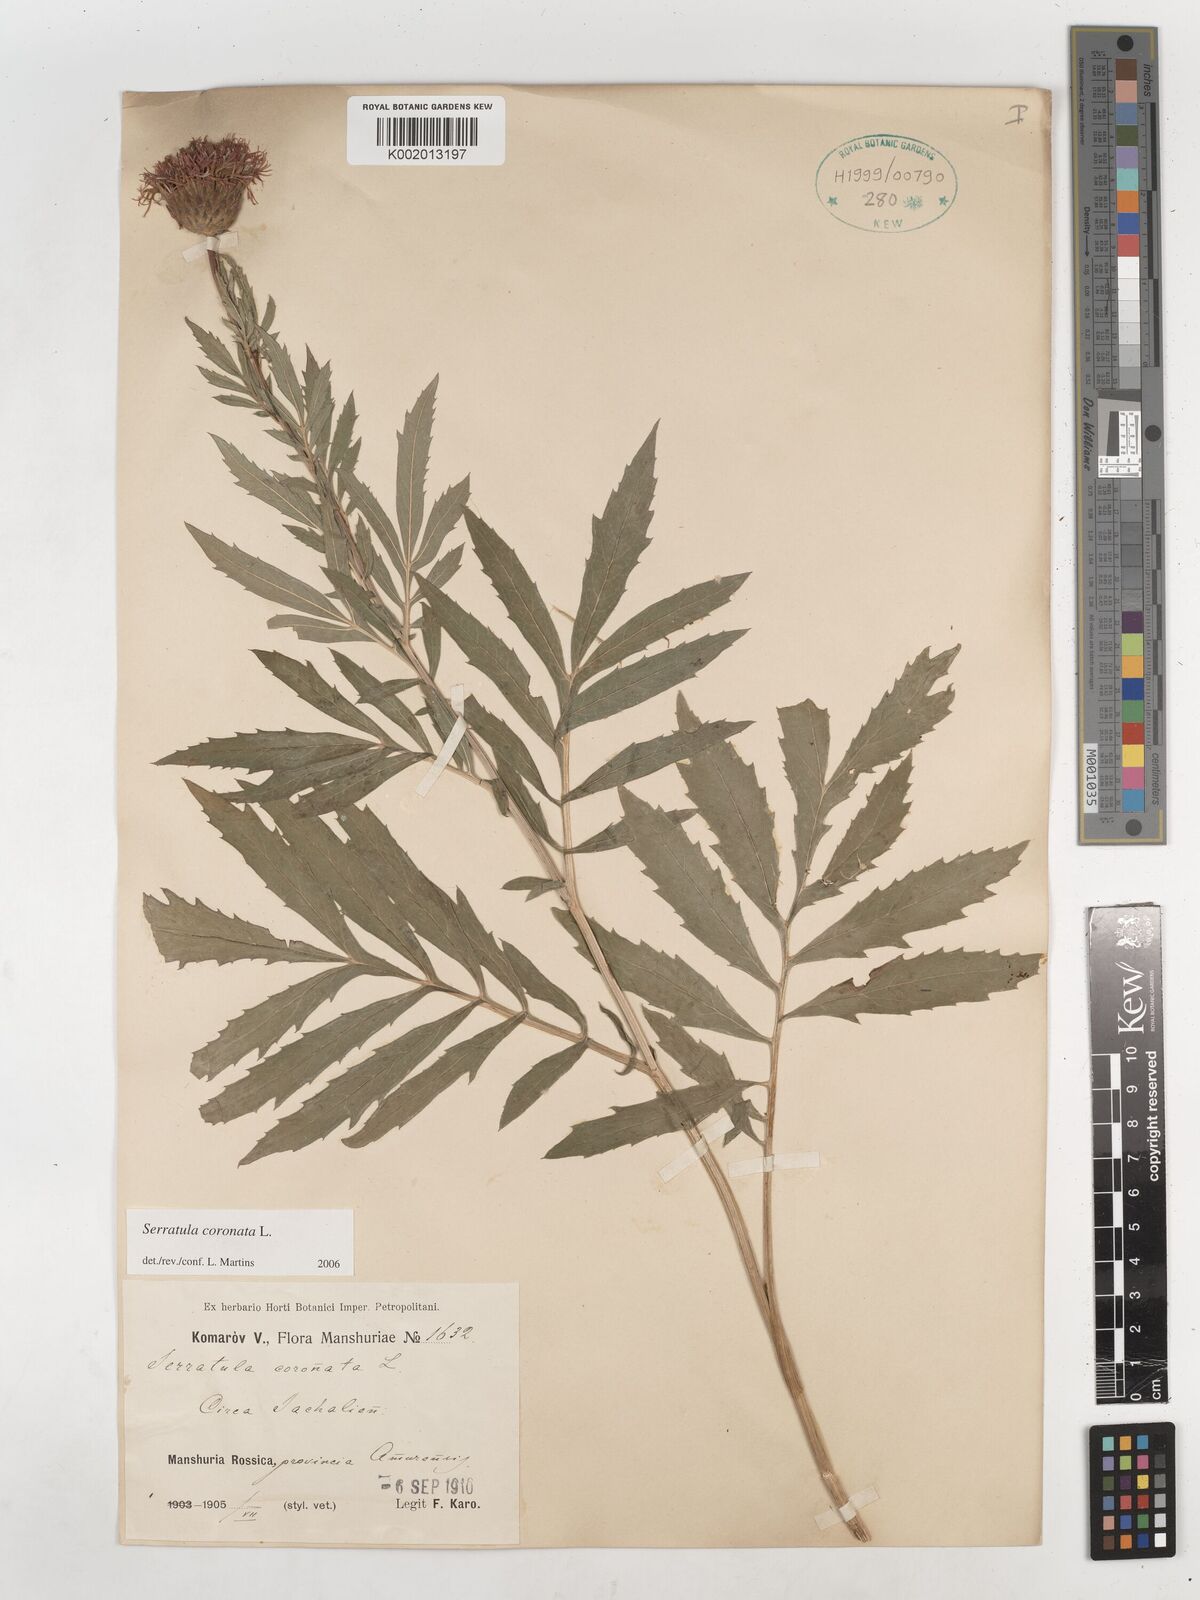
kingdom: Plantae
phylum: Tracheophyta
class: Magnoliopsida
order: Asterales
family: Asteraceae
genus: Serratula
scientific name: Serratula coronata
